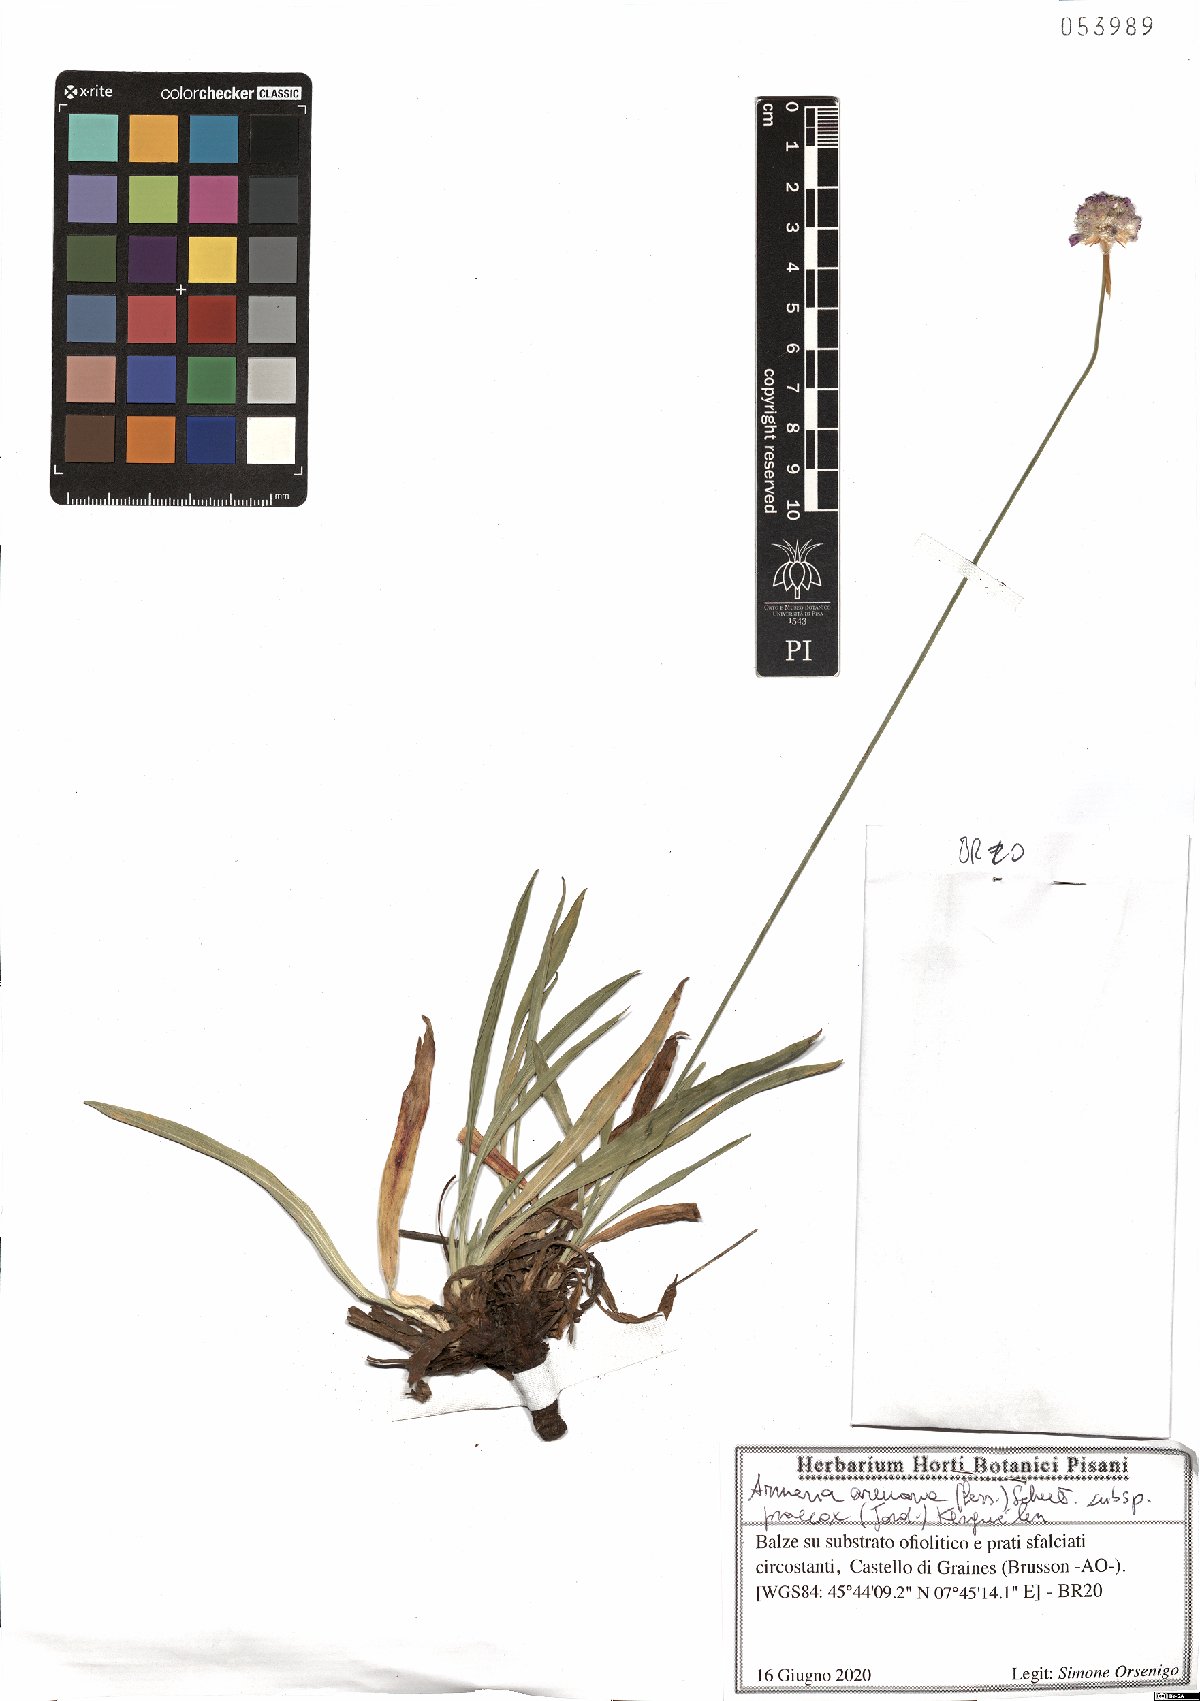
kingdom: Plantae
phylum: Tracheophyta
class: Magnoliopsida
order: Caryophyllales
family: Plumbaginaceae
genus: Armeria
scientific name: Armeria arenaria
